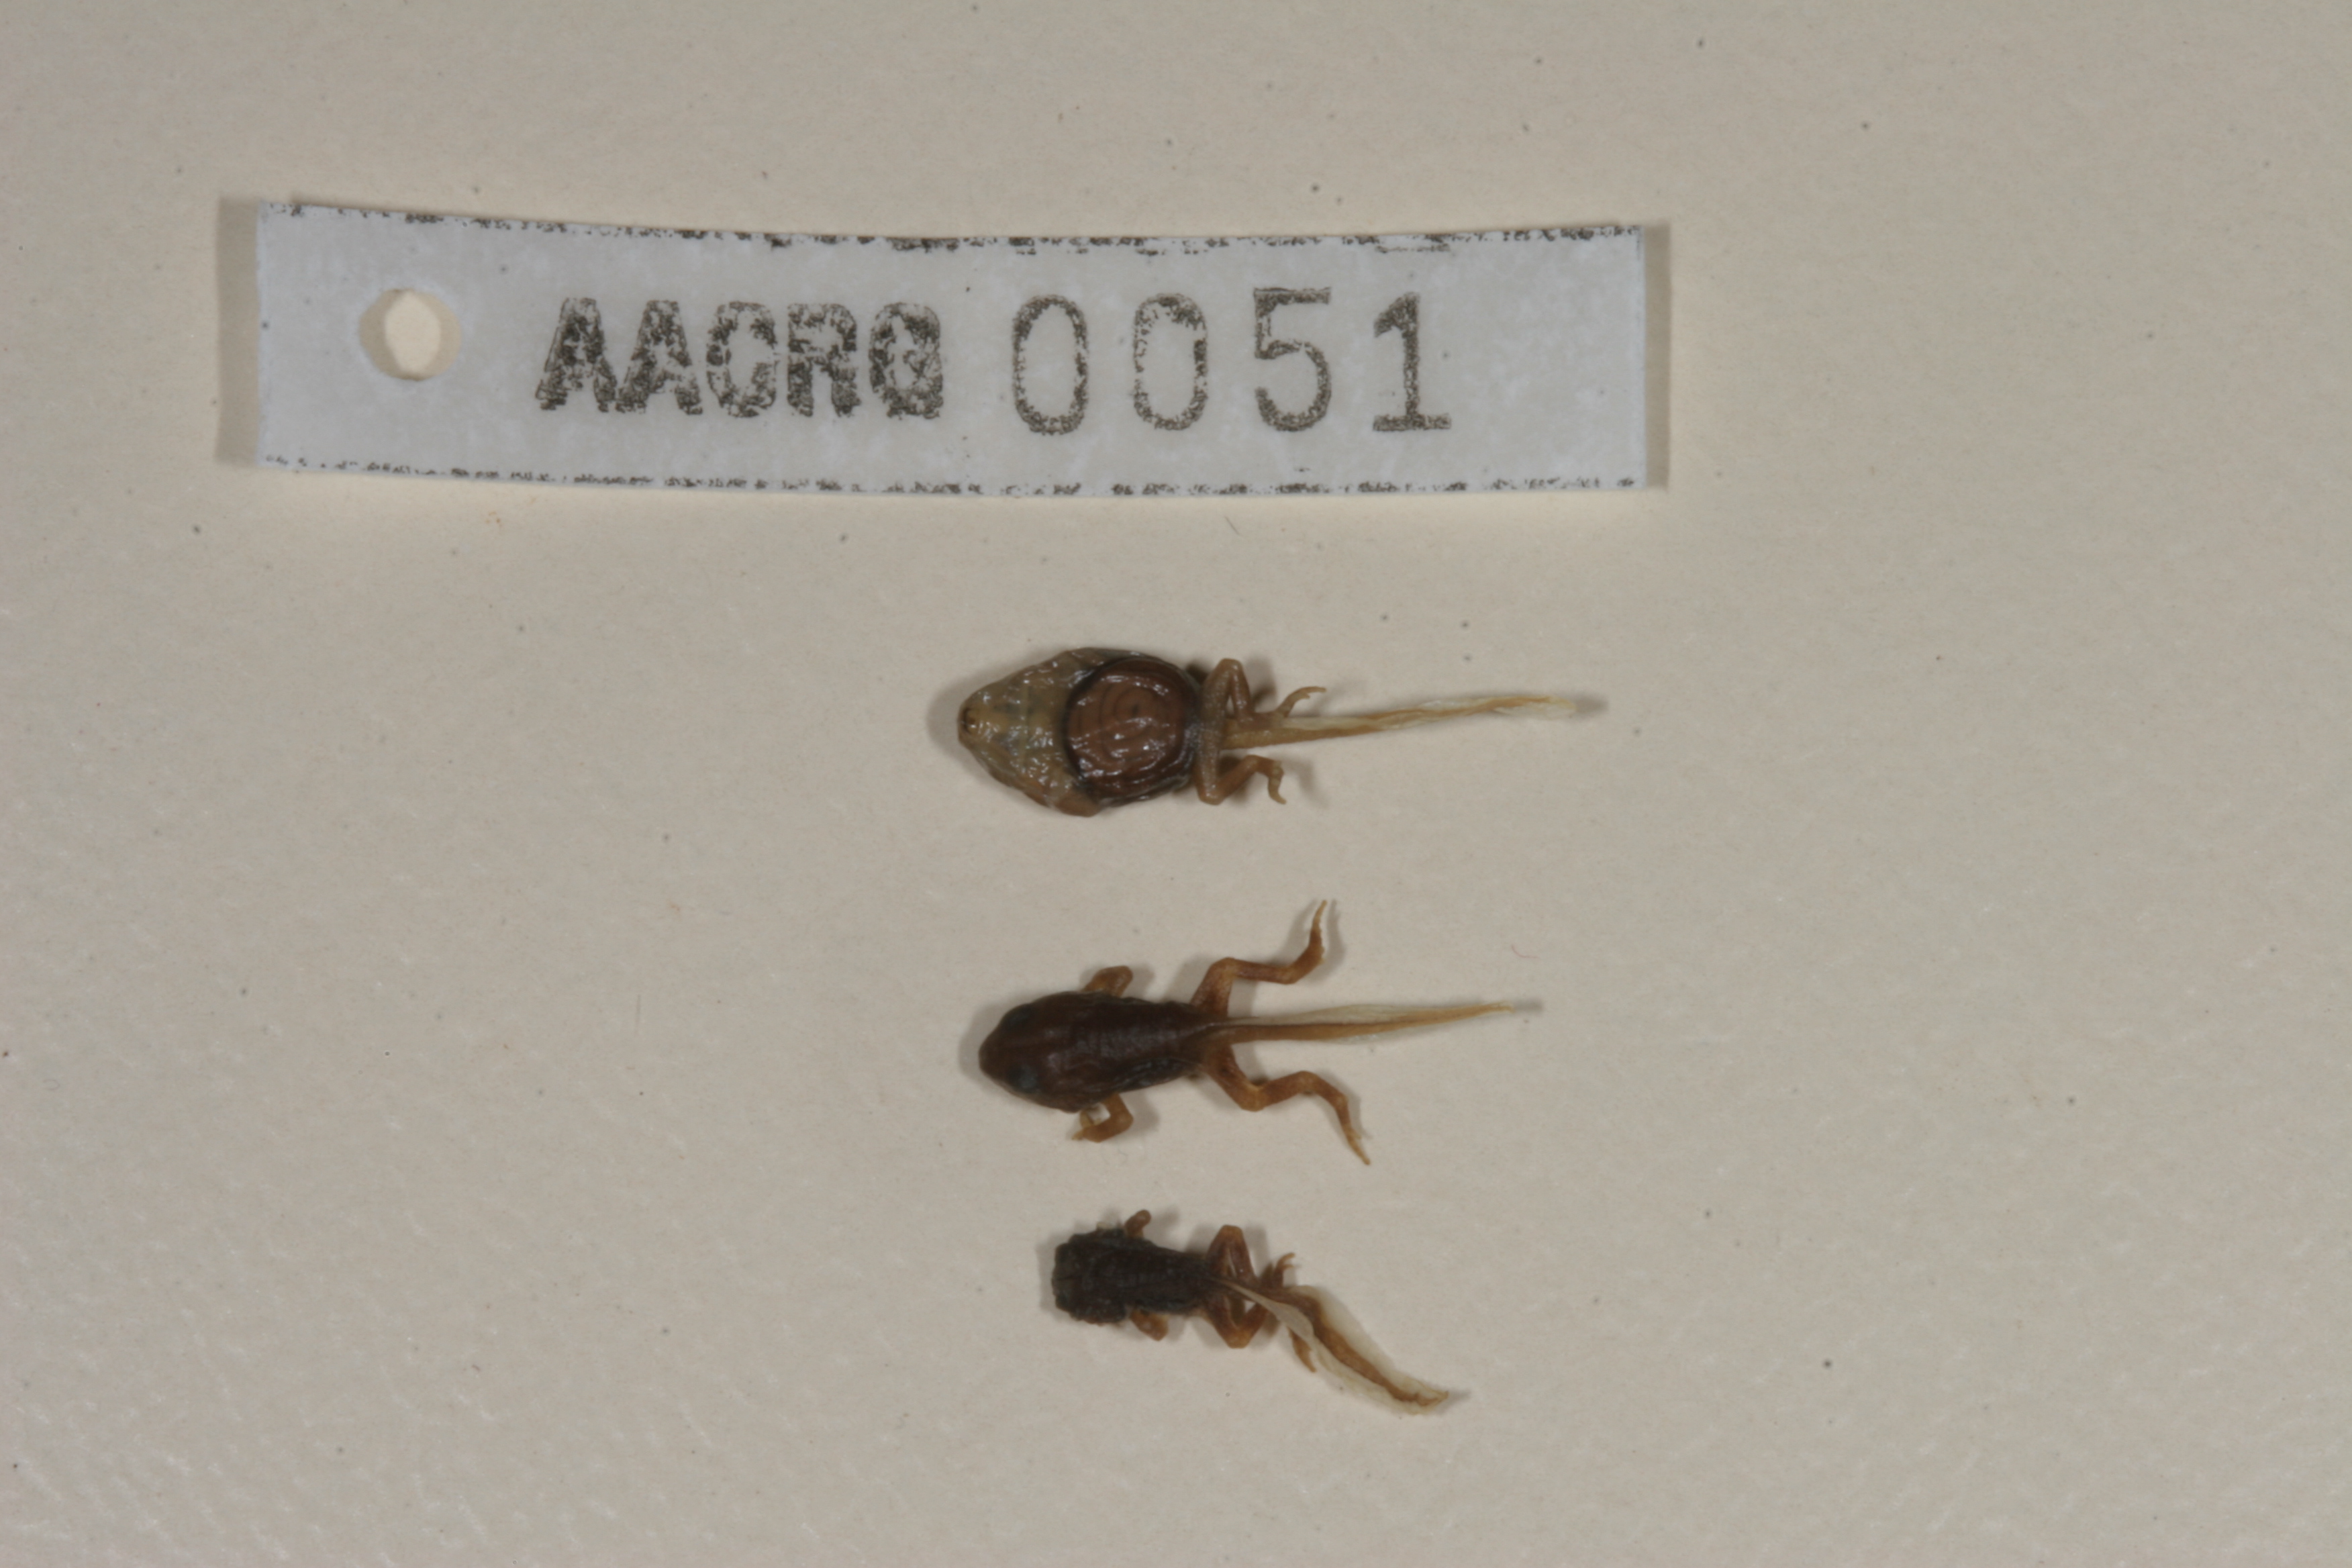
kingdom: Animalia
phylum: Chordata
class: Amphibia
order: Anura
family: Bufonidae
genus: Sclerophrys
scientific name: Sclerophrys gutturalis
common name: African common toad
